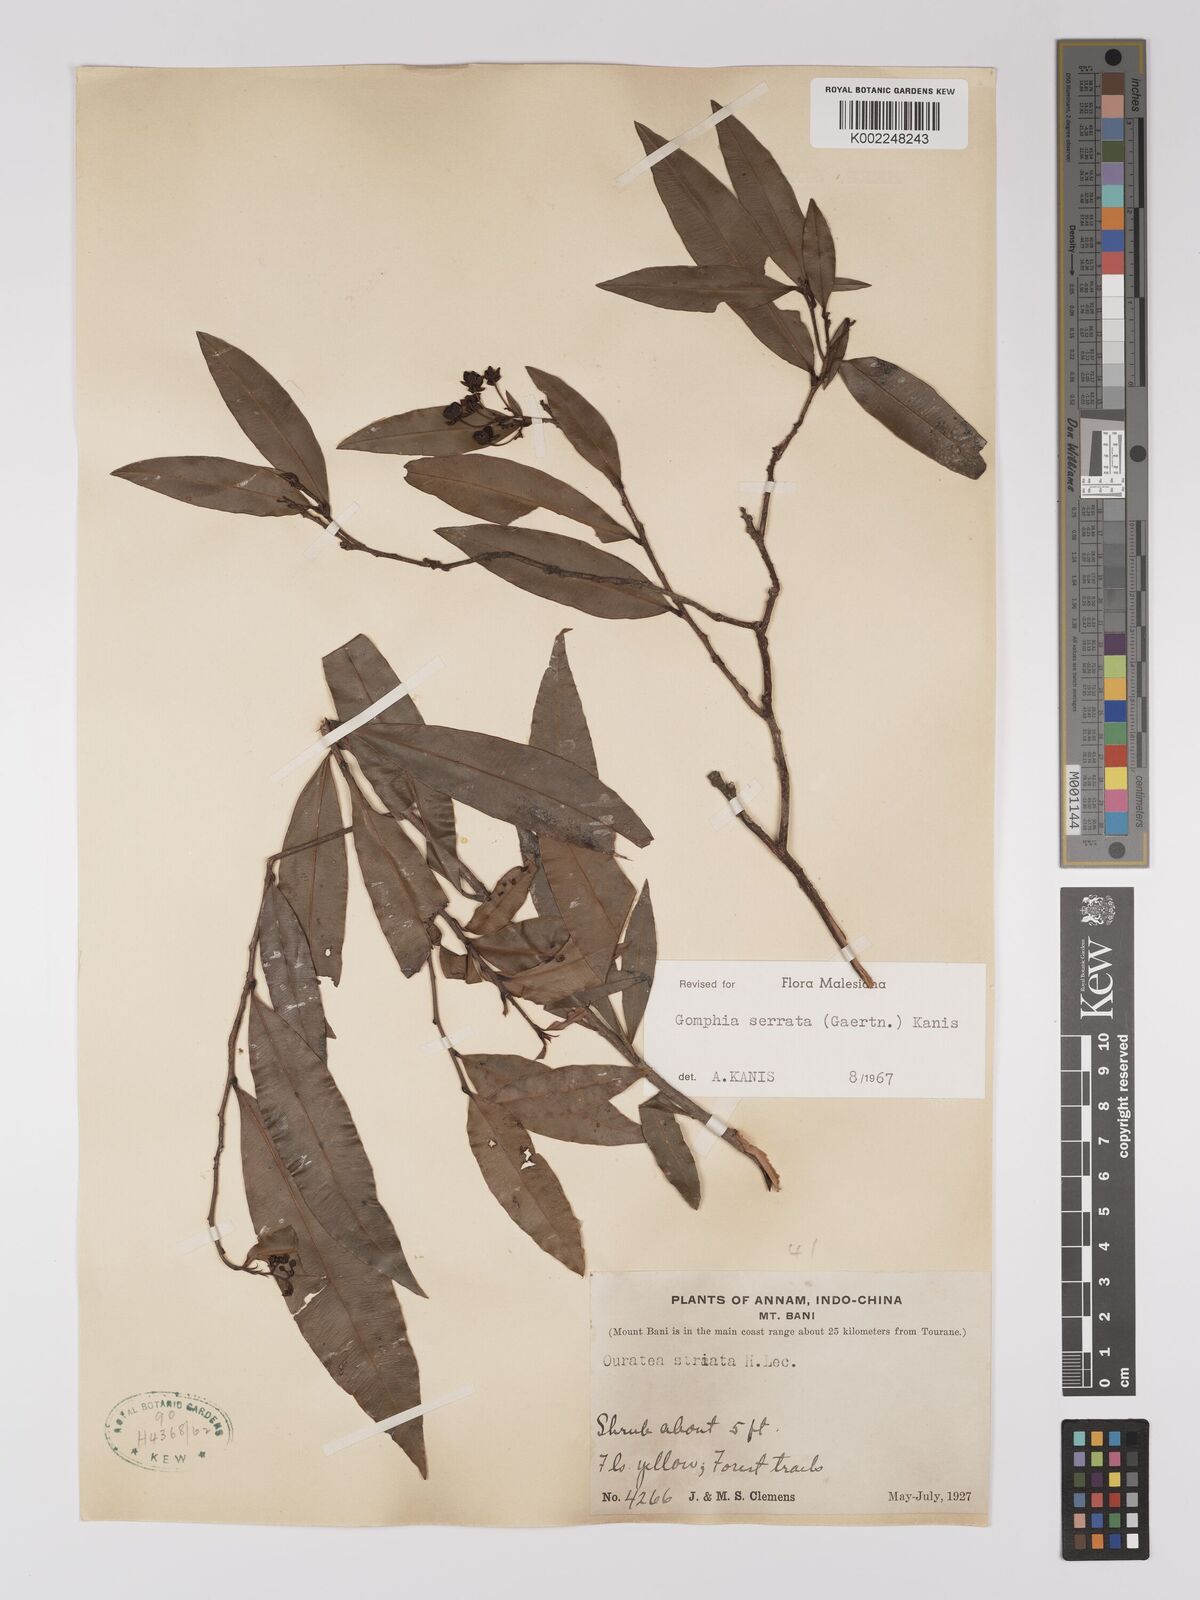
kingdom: Plantae
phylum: Tracheophyta
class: Magnoliopsida
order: Malpighiales
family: Ochnaceae
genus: Gomphia
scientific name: Gomphia serrata
